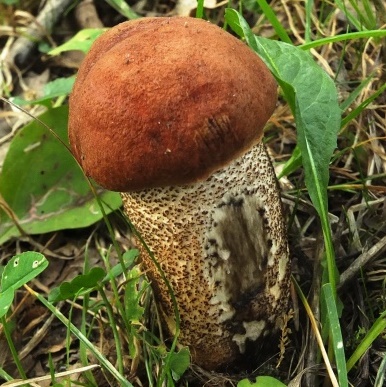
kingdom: Fungi
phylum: Basidiomycota
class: Agaricomycetes
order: Boletales
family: Boletaceae
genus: Leccinum
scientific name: Leccinum aurantiacum
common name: rustrød skælrørhat
